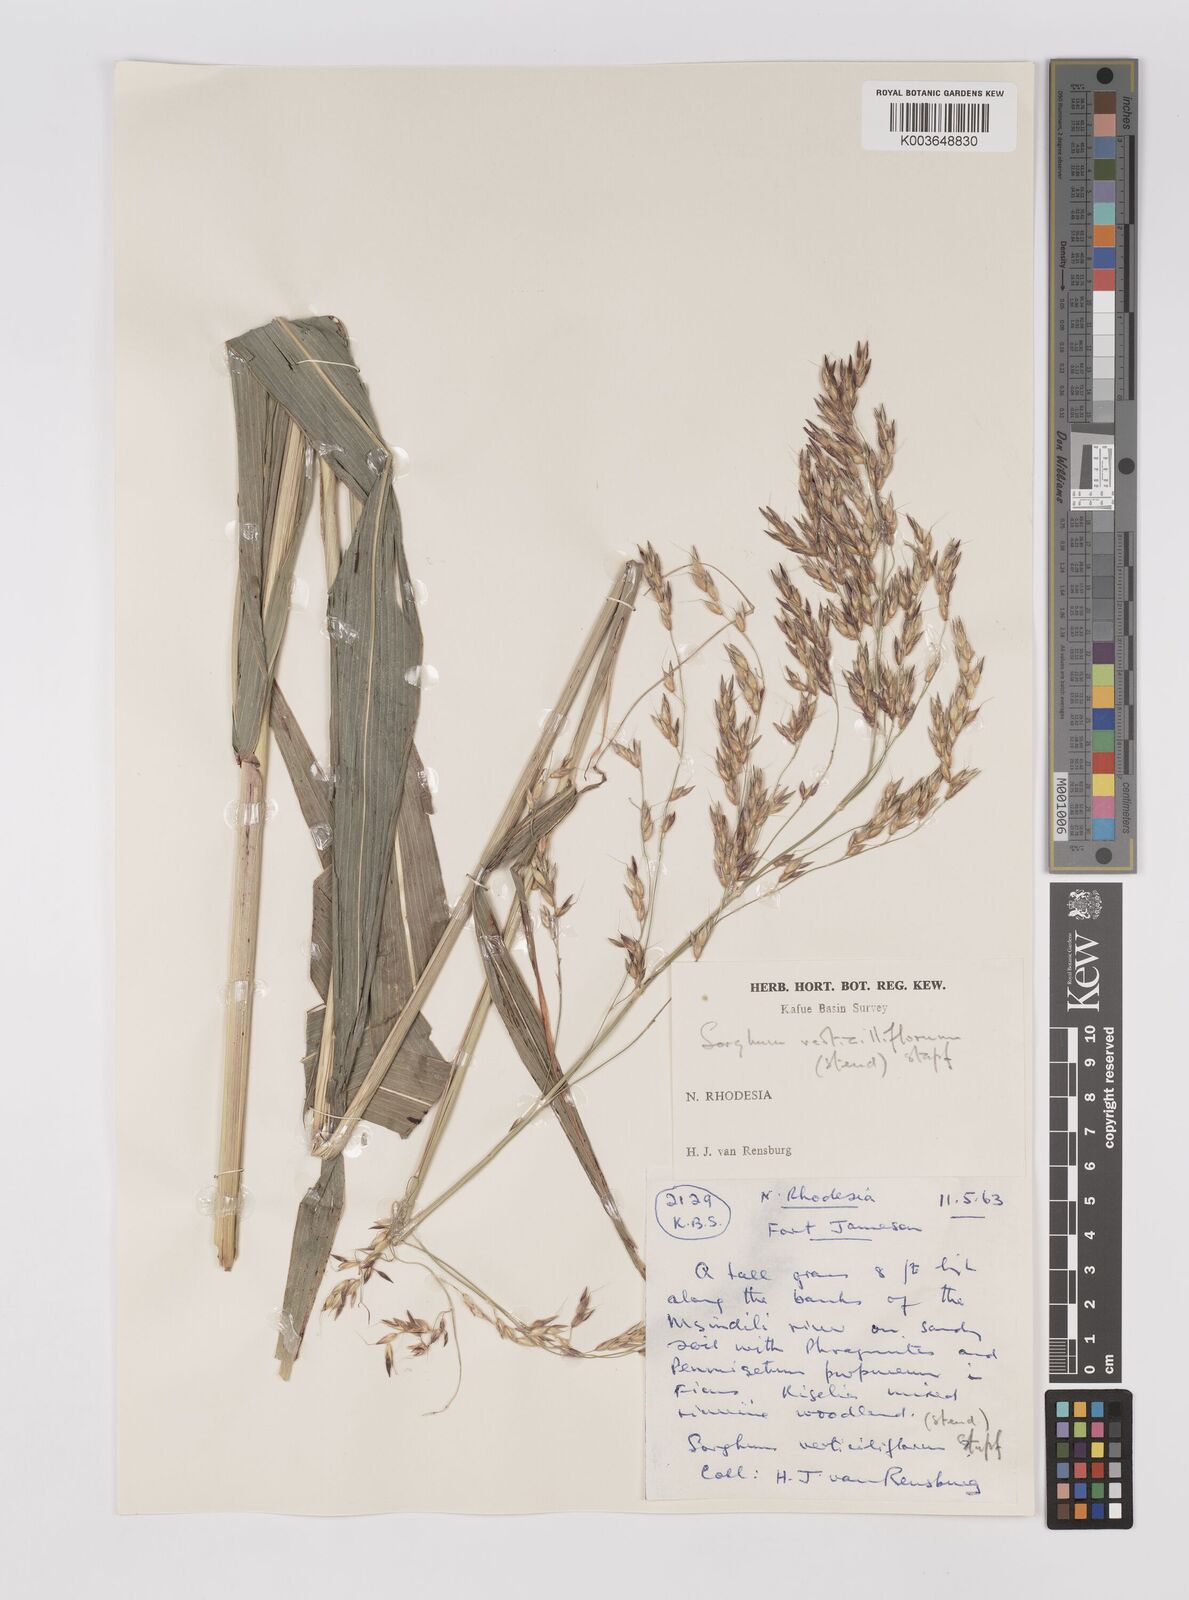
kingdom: Plantae
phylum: Tracheophyta
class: Liliopsida
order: Poales
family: Poaceae
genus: Sorghum
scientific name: Sorghum arundinaceum
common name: Sorghum
